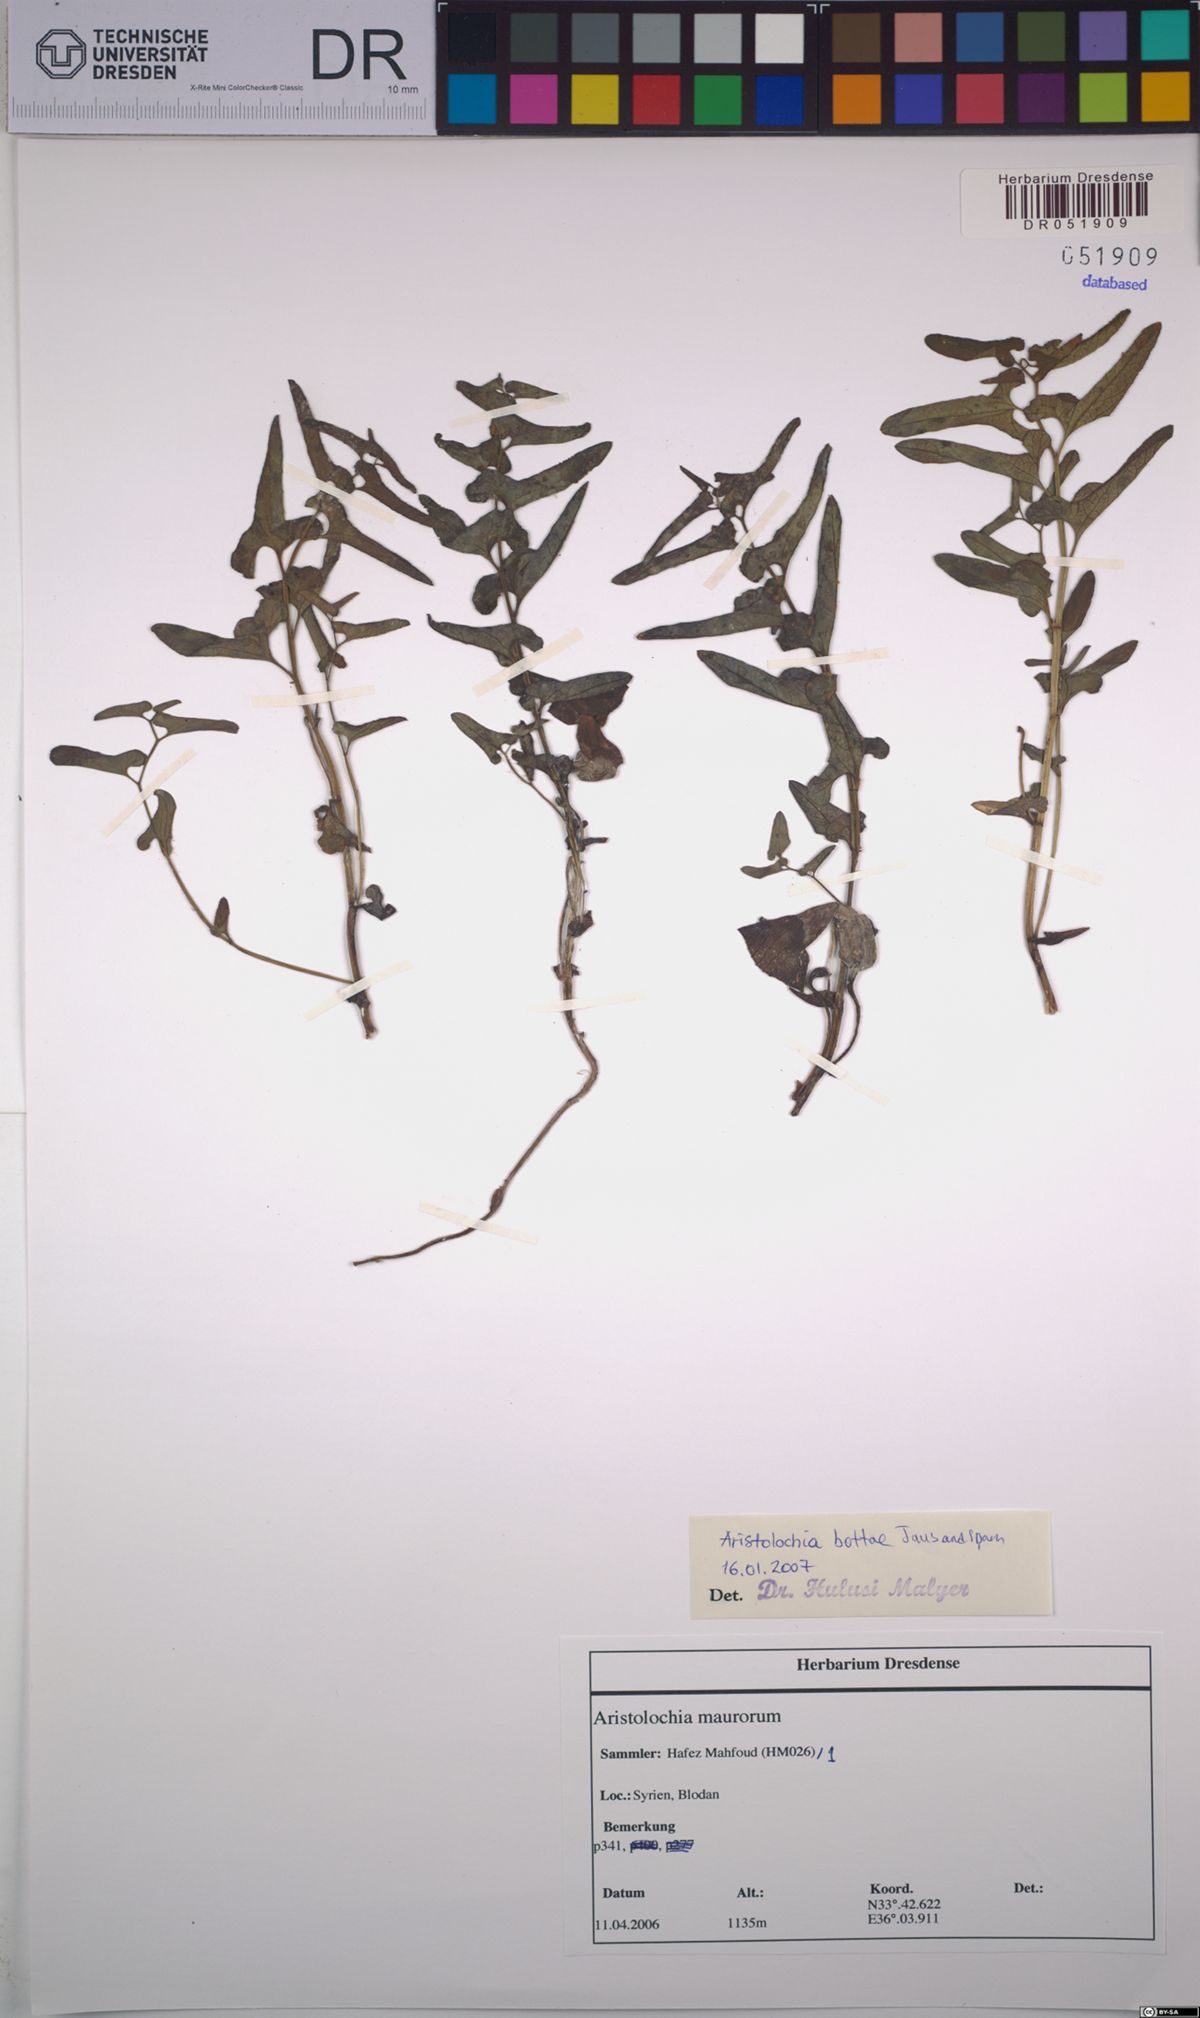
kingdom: Plantae
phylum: Tracheophyta
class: Magnoliopsida
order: Piperales
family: Aristolochiaceae
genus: Aristolochia
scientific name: Aristolochia bottae
